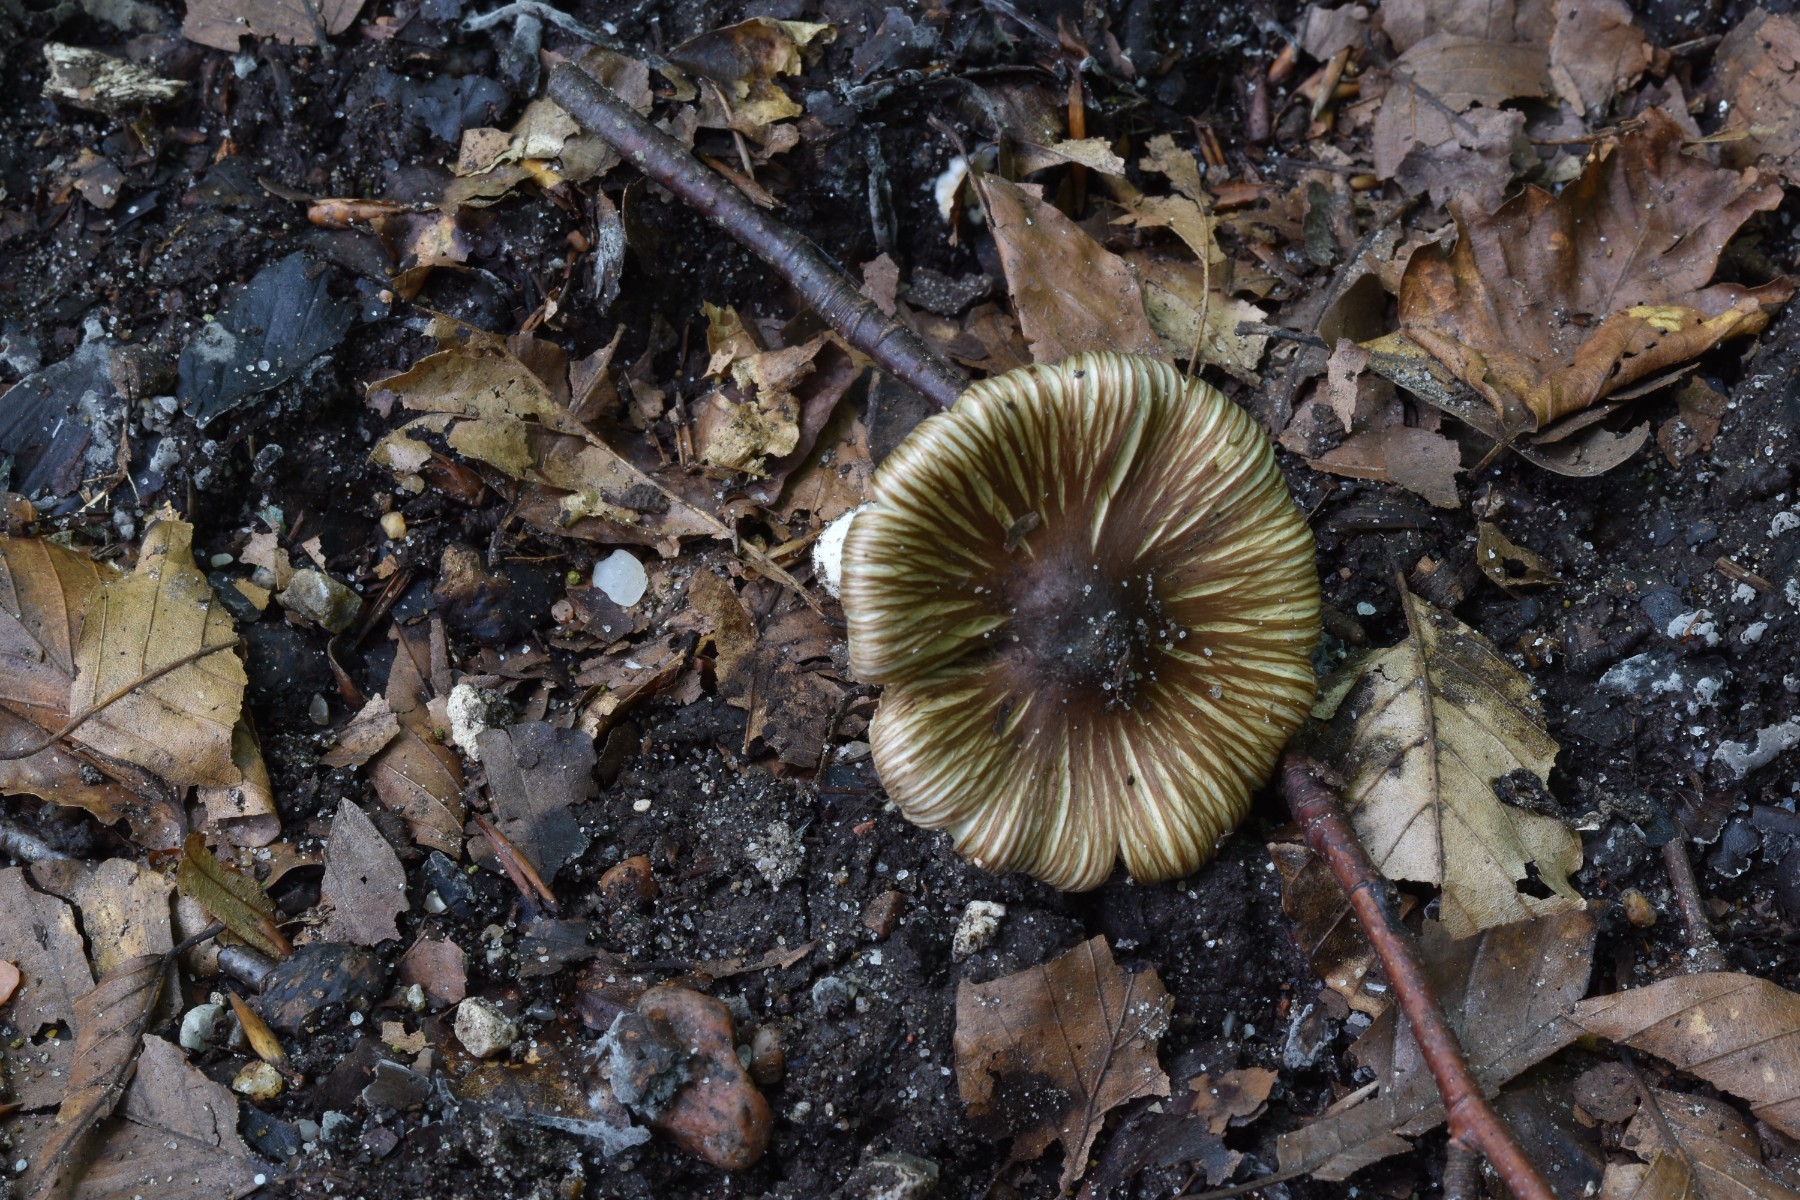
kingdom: Fungi
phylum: Basidiomycota
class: Agaricomycetes
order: Agaricales
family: Inocybaceae
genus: Pseudosperma
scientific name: Pseudosperma
